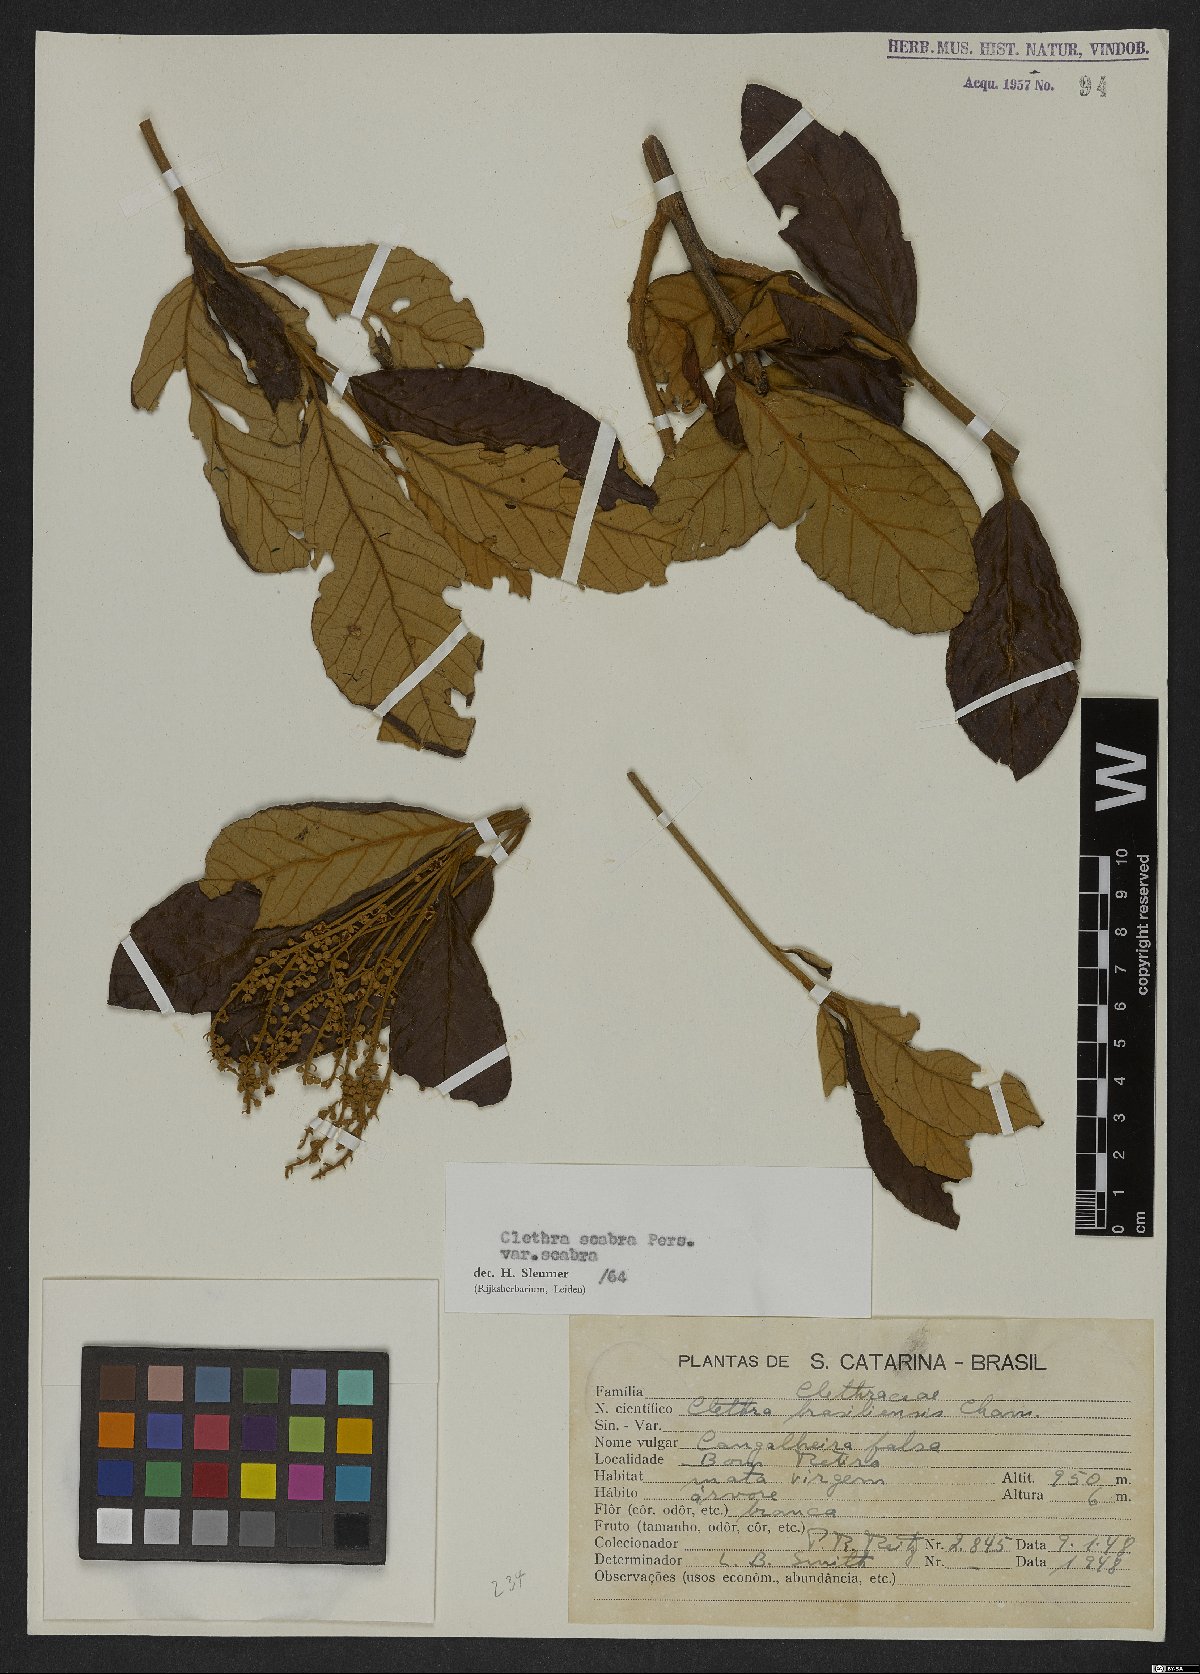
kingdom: Plantae
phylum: Tracheophyta
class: Magnoliopsida
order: Ericales
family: Clethraceae
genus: Clethra
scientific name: Clethra scabra
